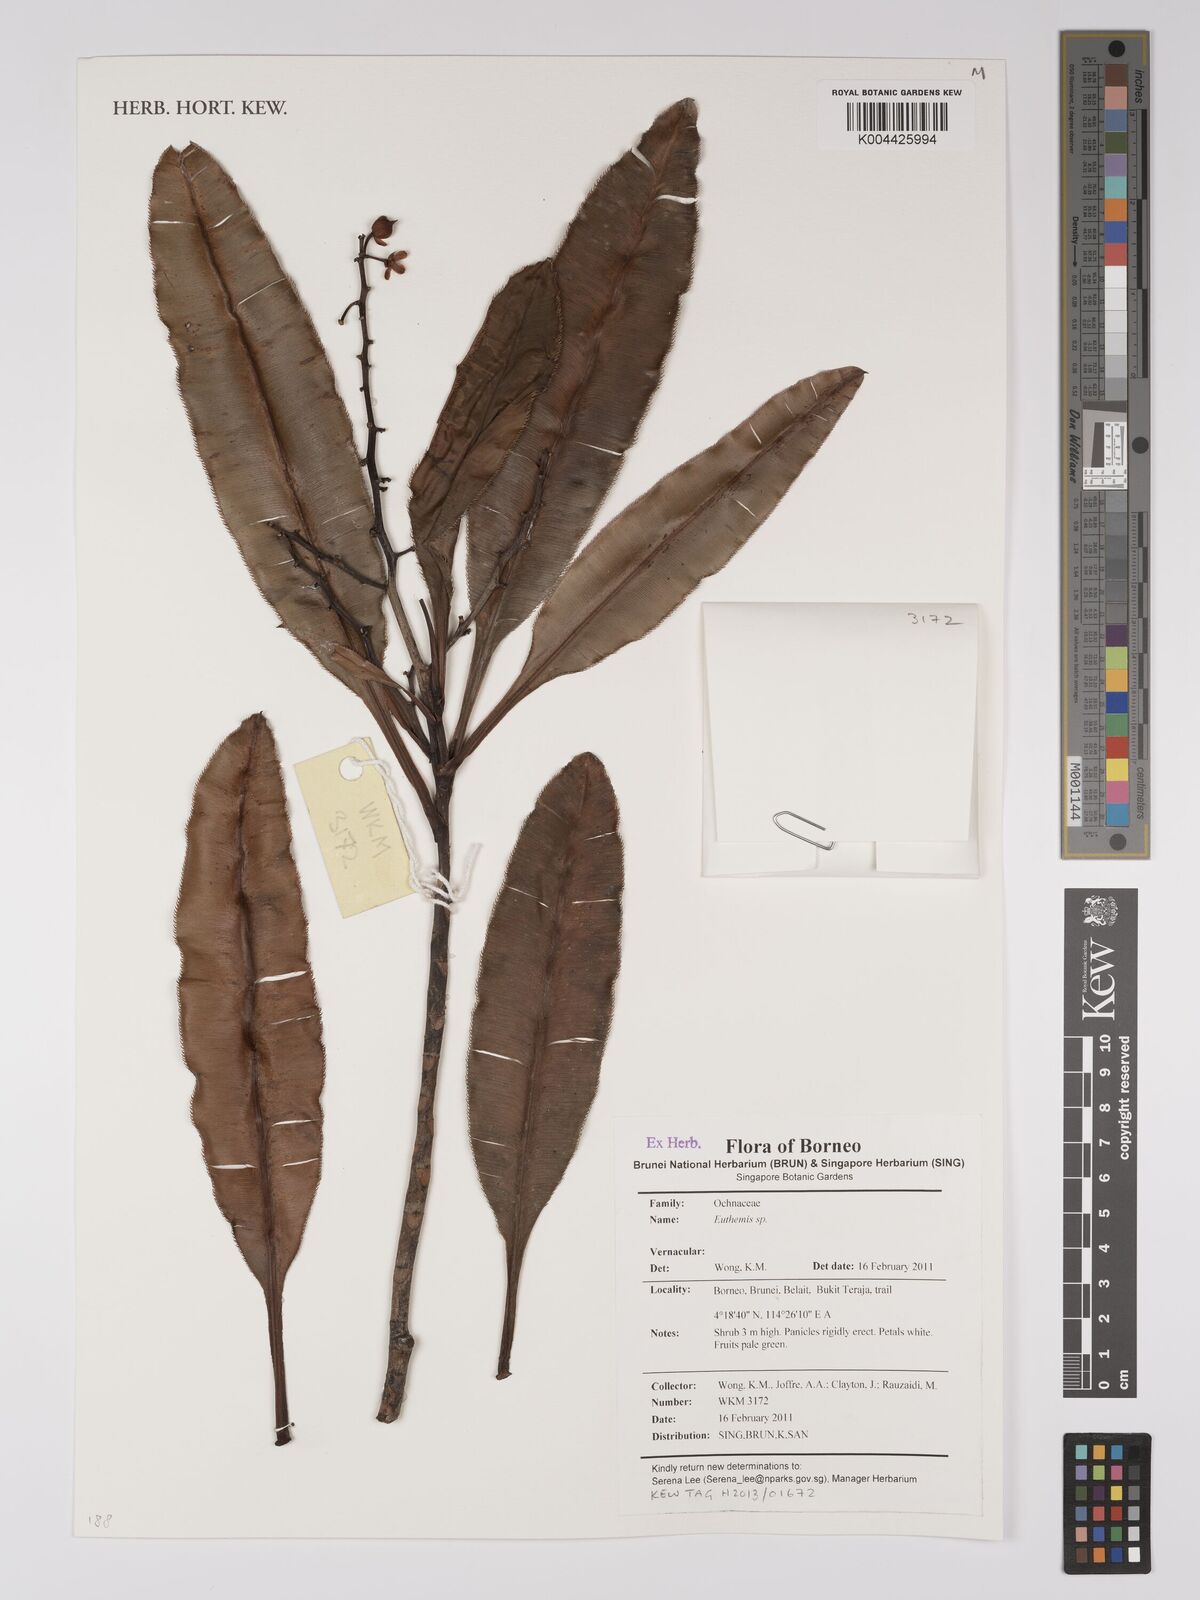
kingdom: Plantae
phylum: Tracheophyta
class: Magnoliopsida
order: Malpighiales
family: Ochnaceae
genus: Euthemis
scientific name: Euthemis
